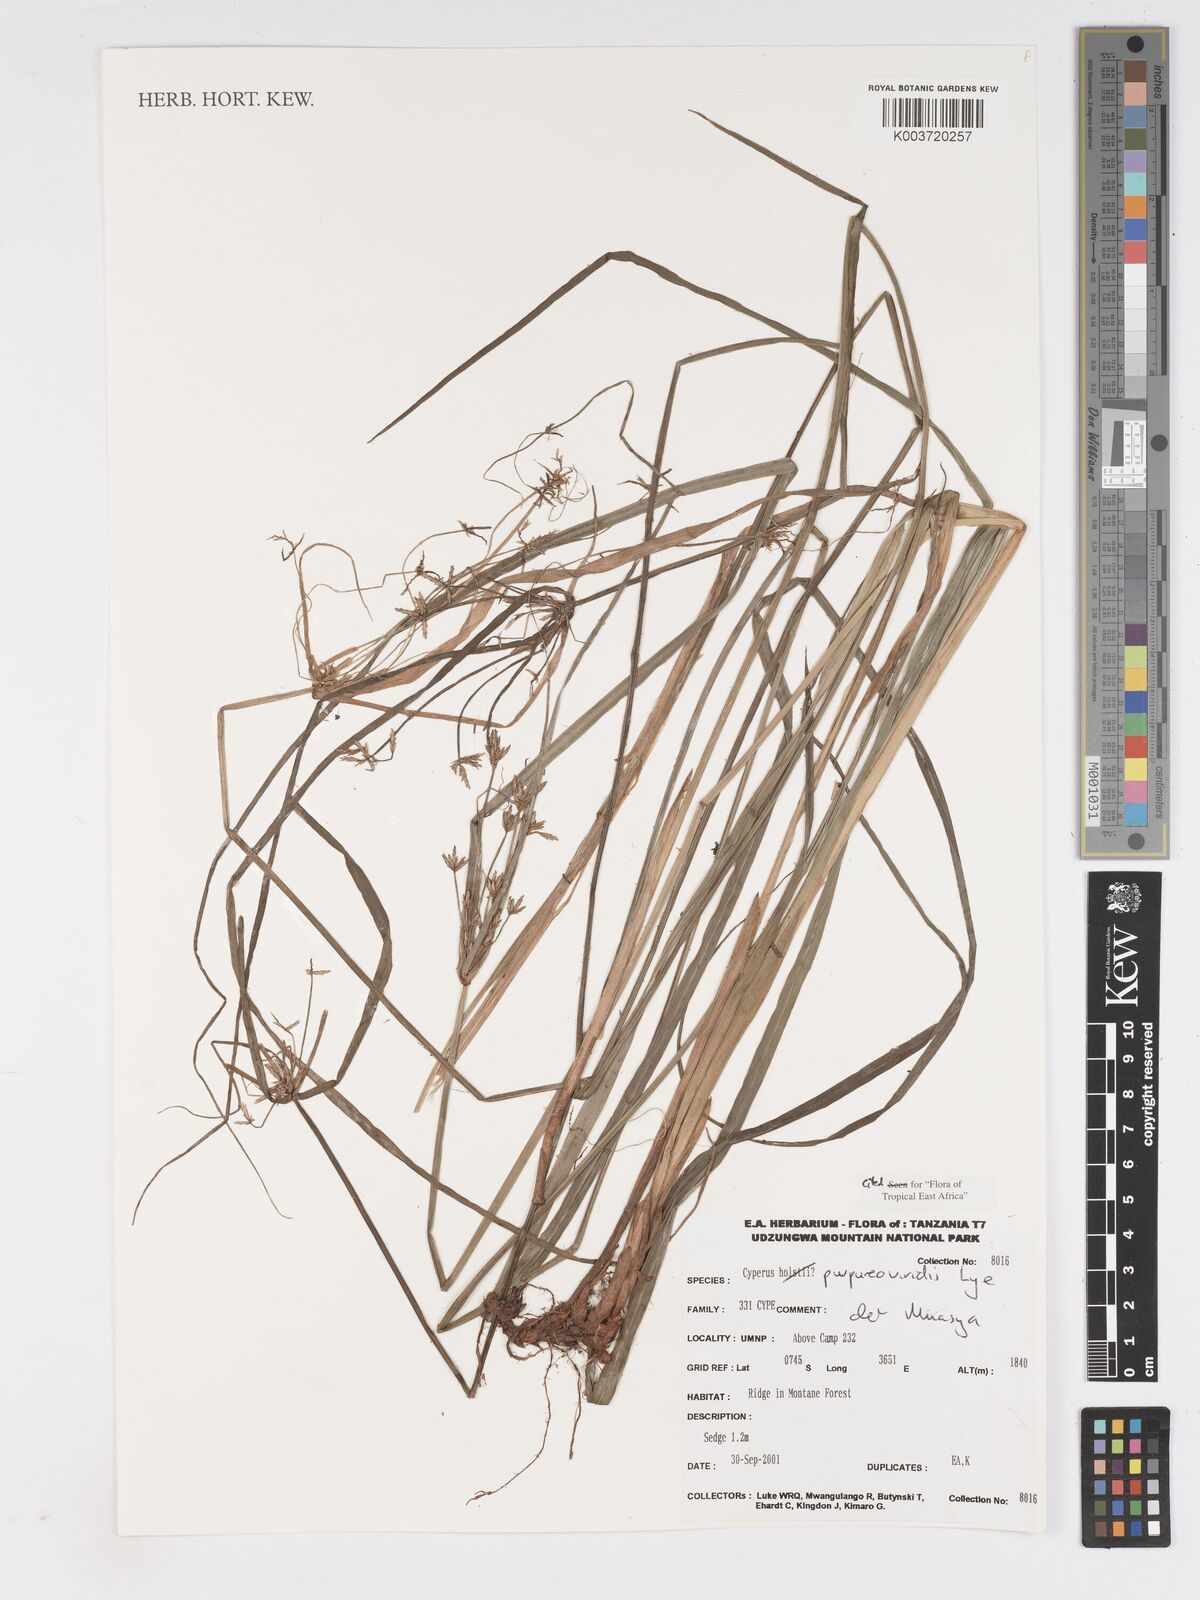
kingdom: Plantae
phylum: Tracheophyta
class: Liliopsida
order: Poales
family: Cyperaceae
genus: Cyperus
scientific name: Cyperus purpureoviridis
